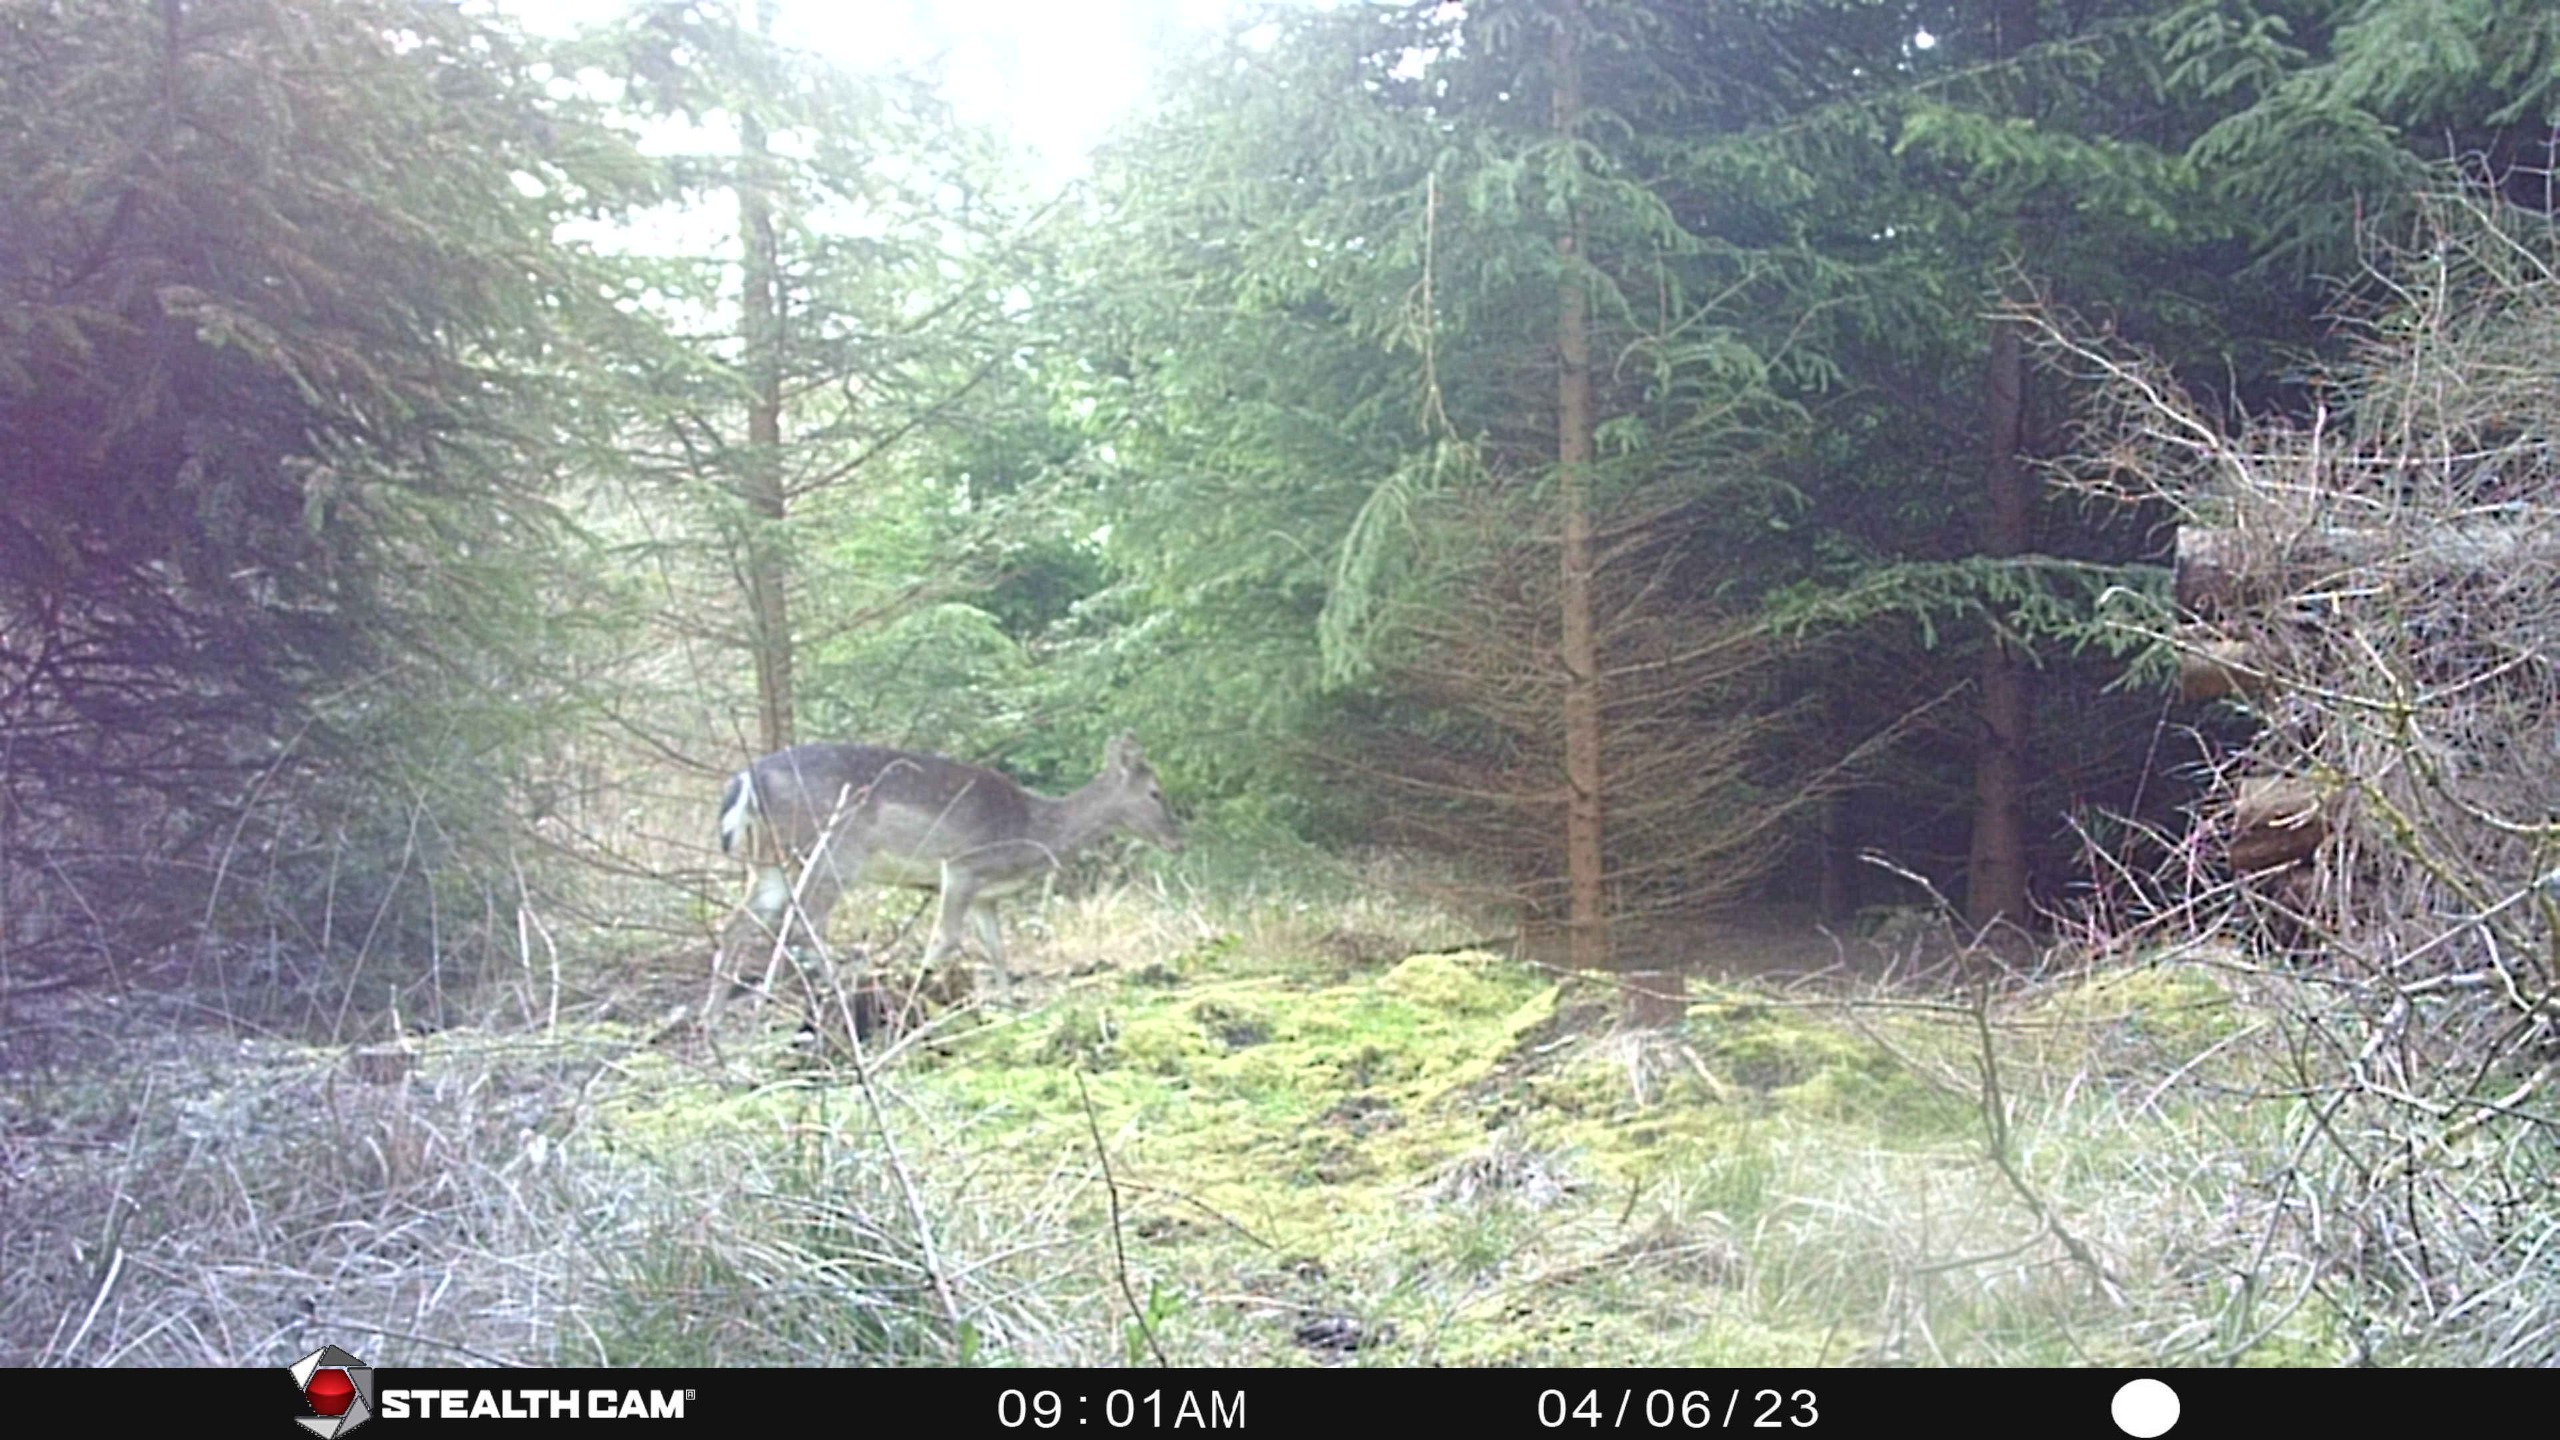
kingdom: Animalia
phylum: Chordata
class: Mammalia
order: Artiodactyla
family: Cervidae
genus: Dama
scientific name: Dama dama
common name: Dådyr
